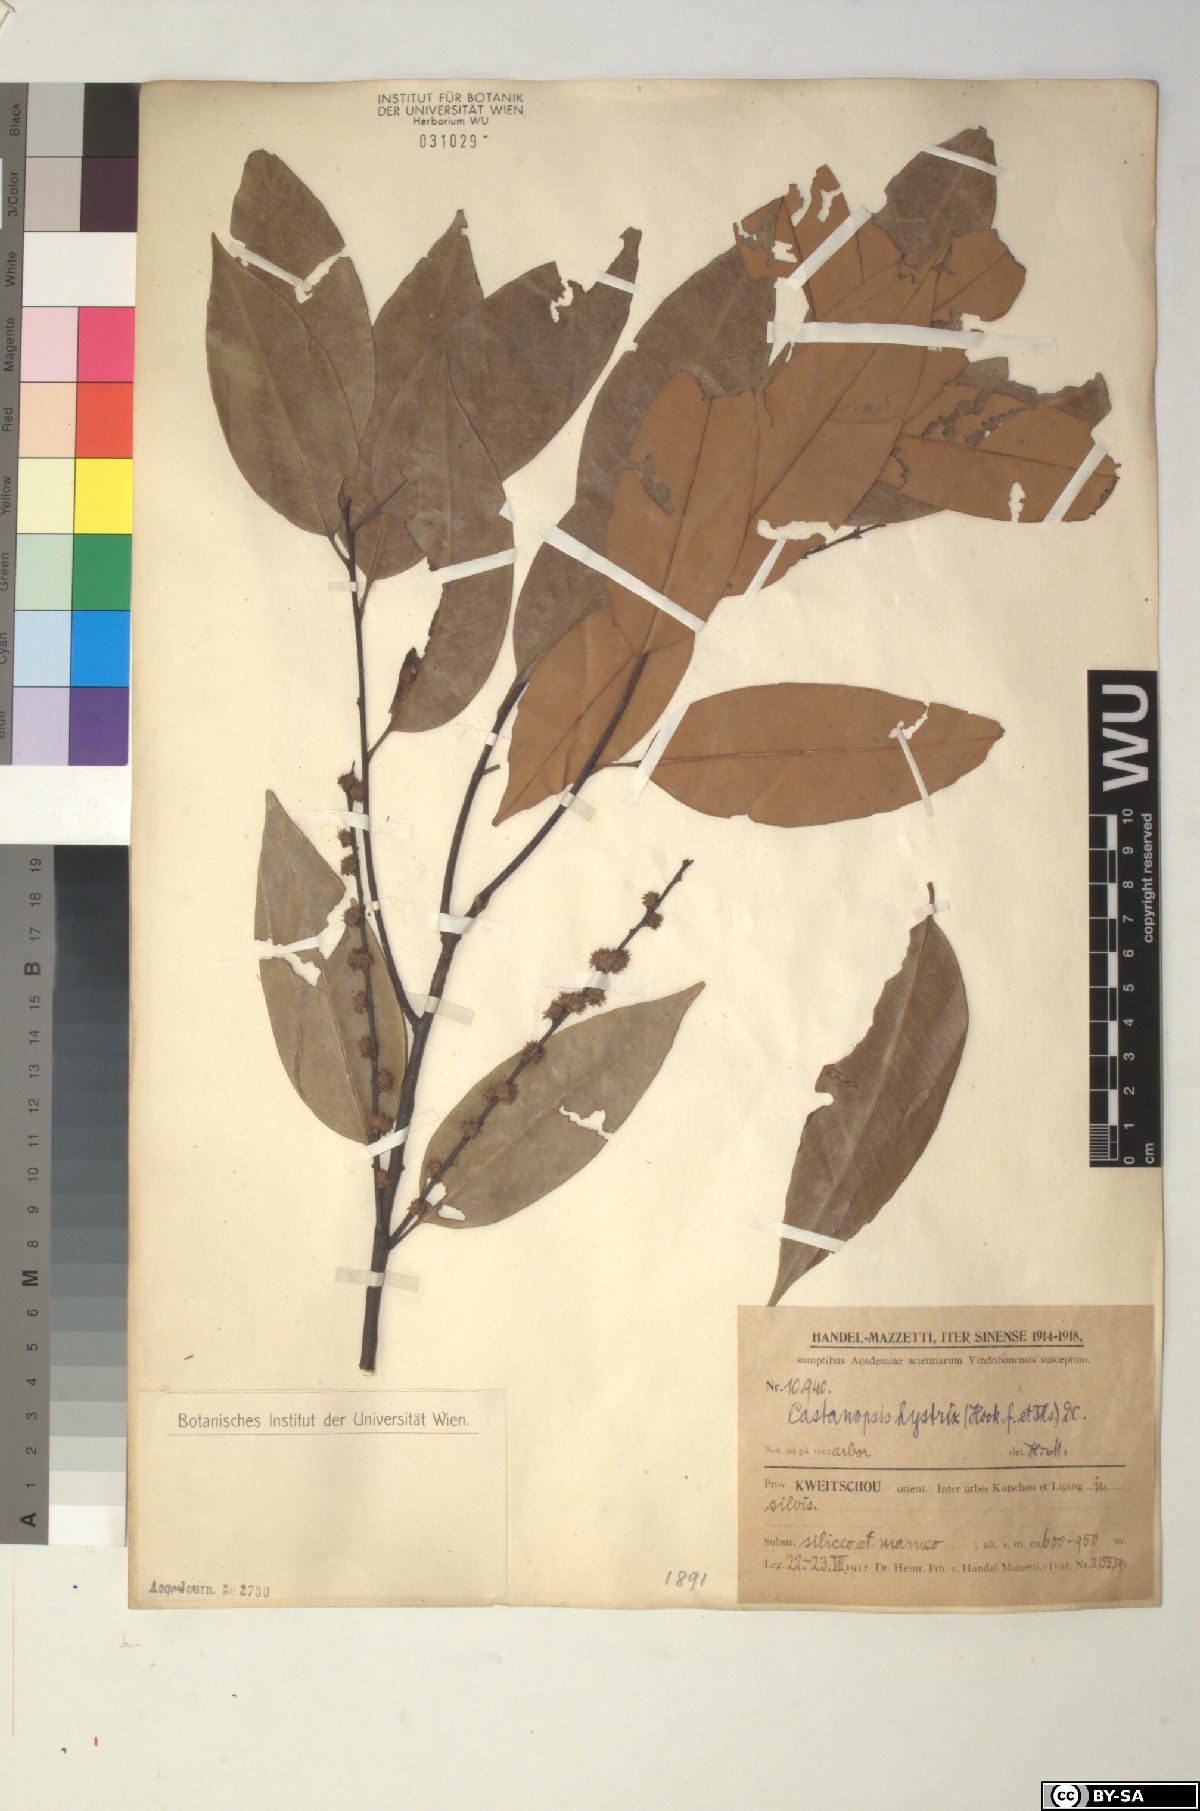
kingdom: Plantae
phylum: Tracheophyta
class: Magnoliopsida
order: Fagales
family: Fagaceae
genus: Castanopsis
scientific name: Castanopsis hystrix
